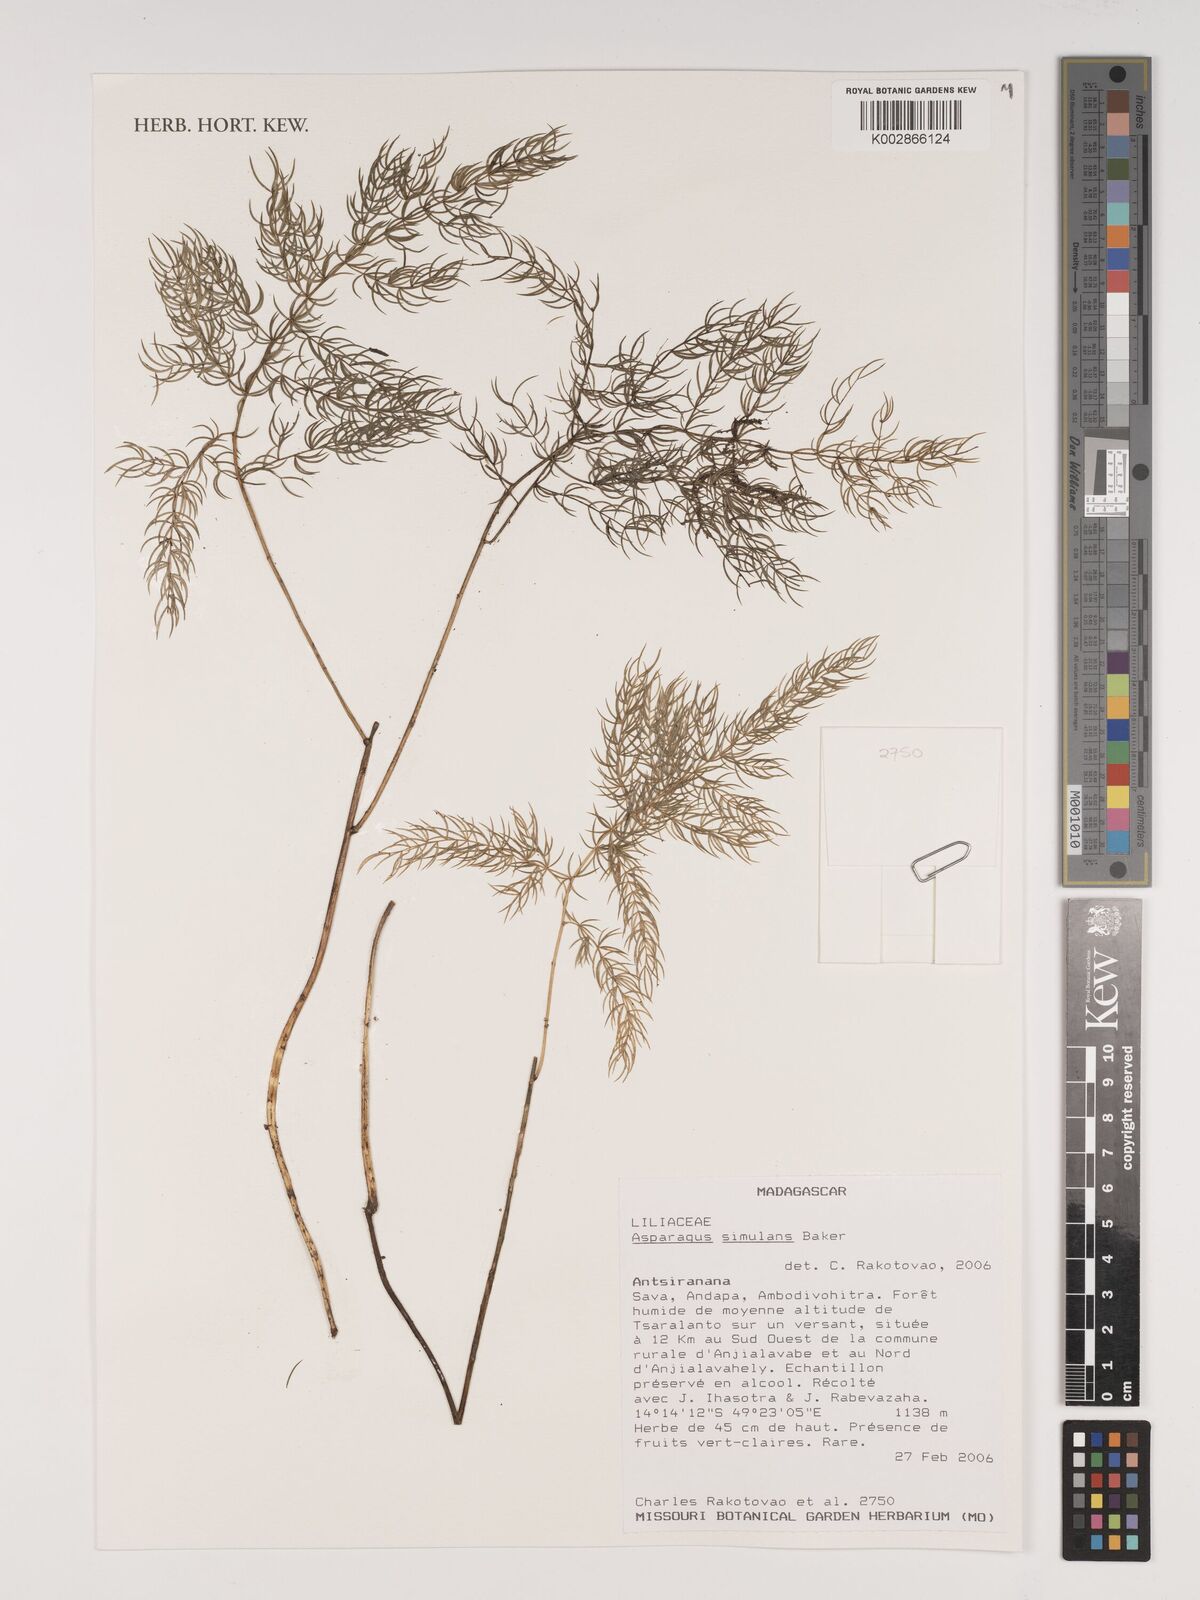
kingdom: Plantae
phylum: Tracheophyta
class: Liliopsida
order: Asparagales
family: Asparagaceae
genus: Asparagus
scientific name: Asparagus simulans
